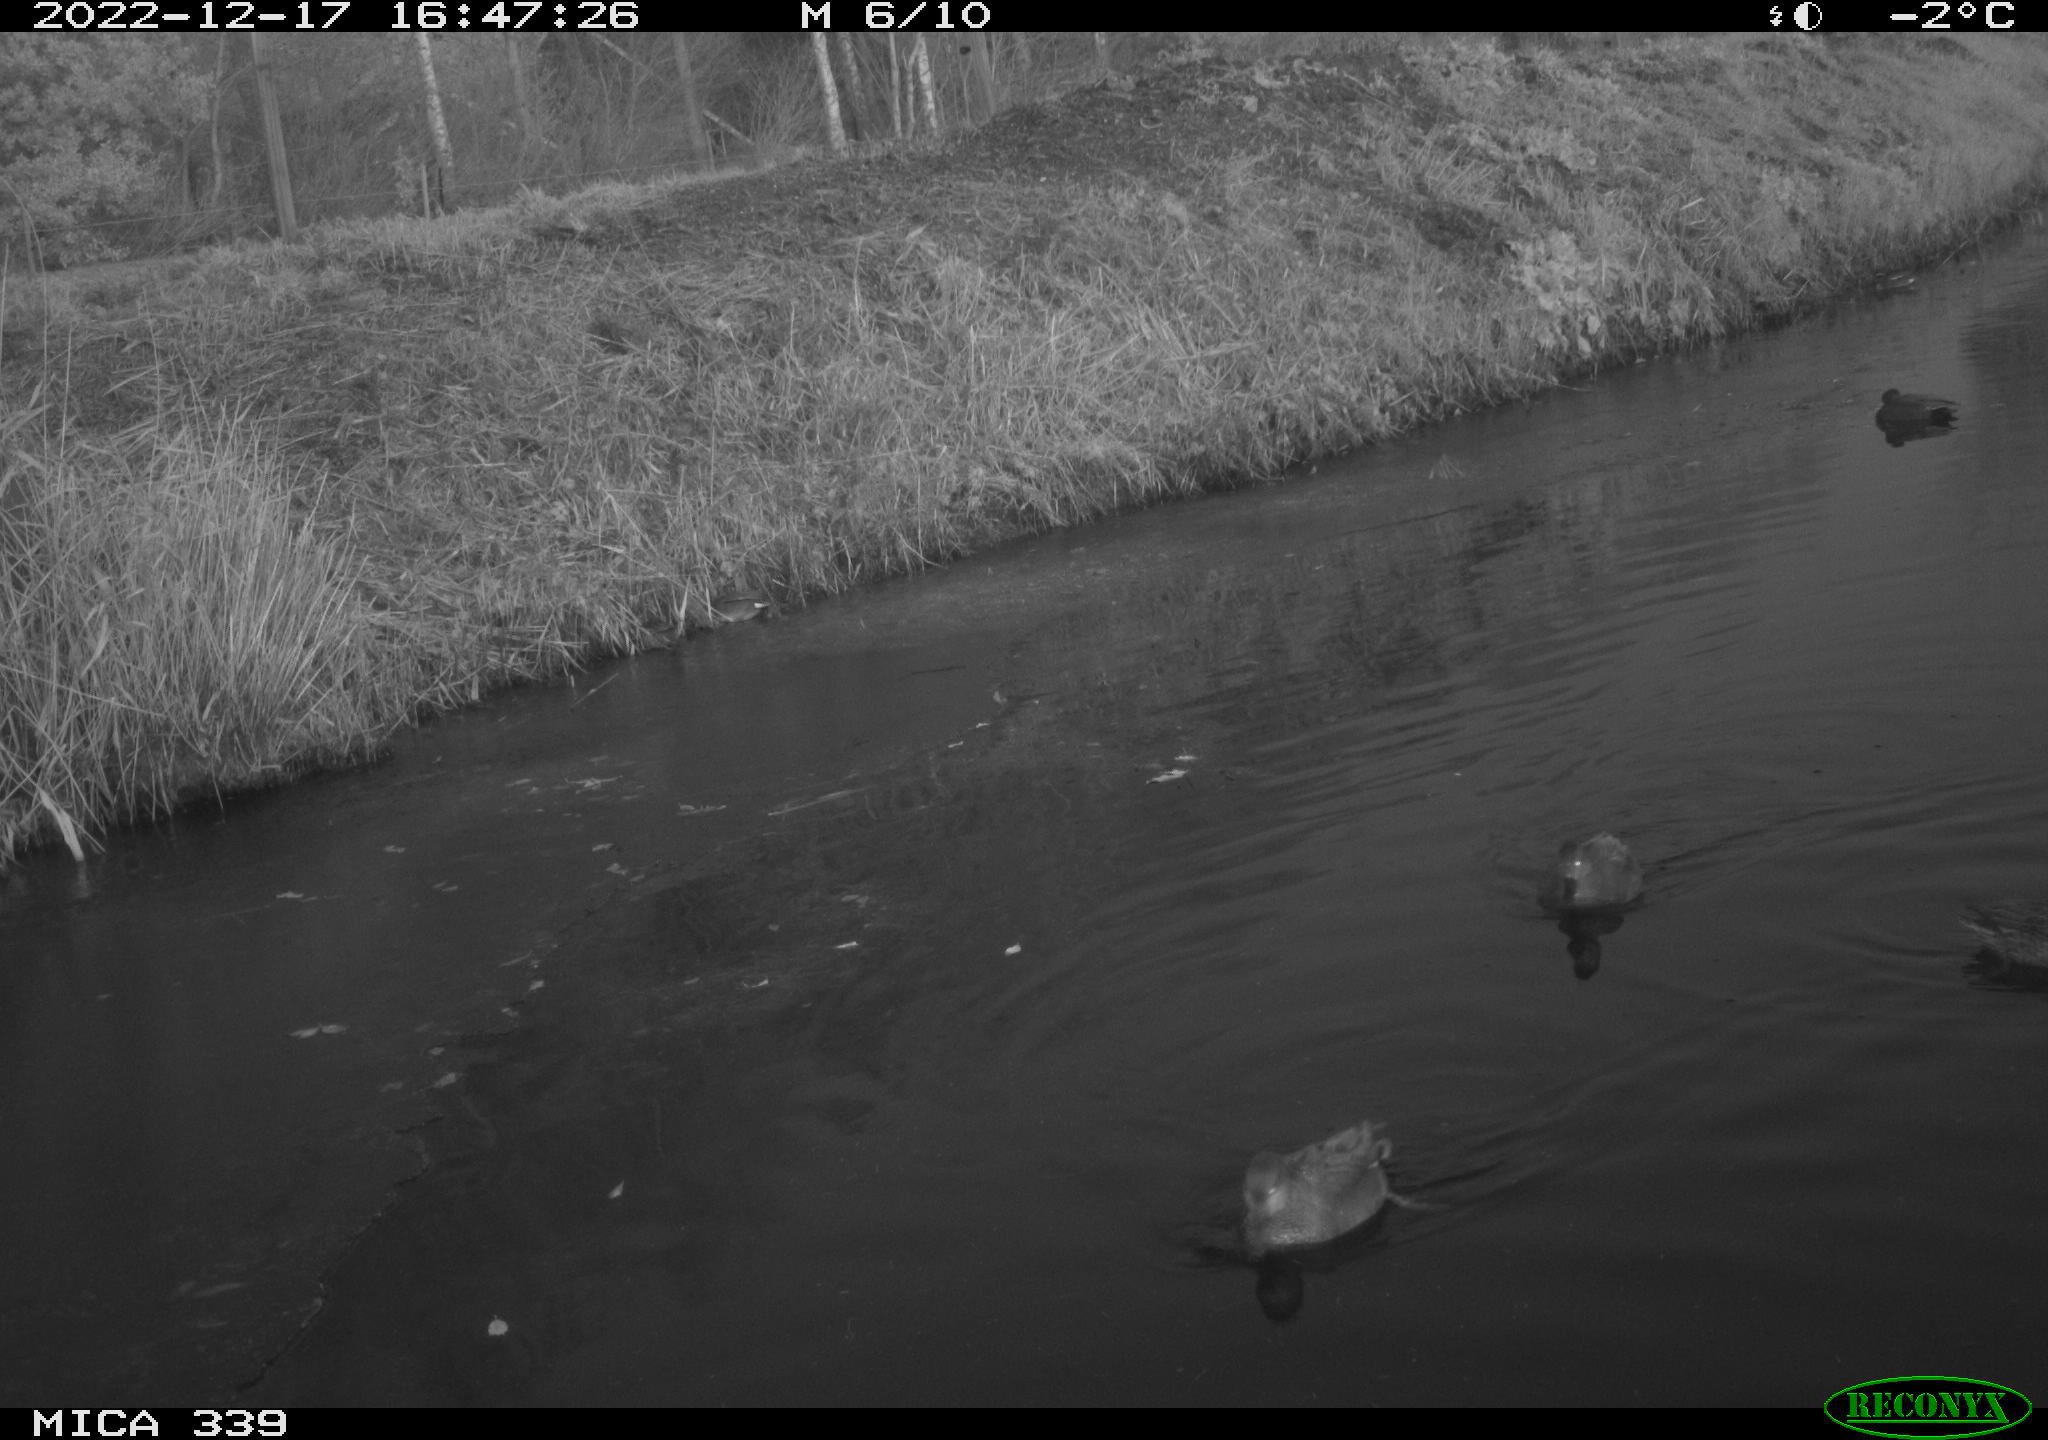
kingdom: Animalia
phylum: Chordata
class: Aves
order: Anseriformes
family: Anatidae
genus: Anas
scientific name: Anas
